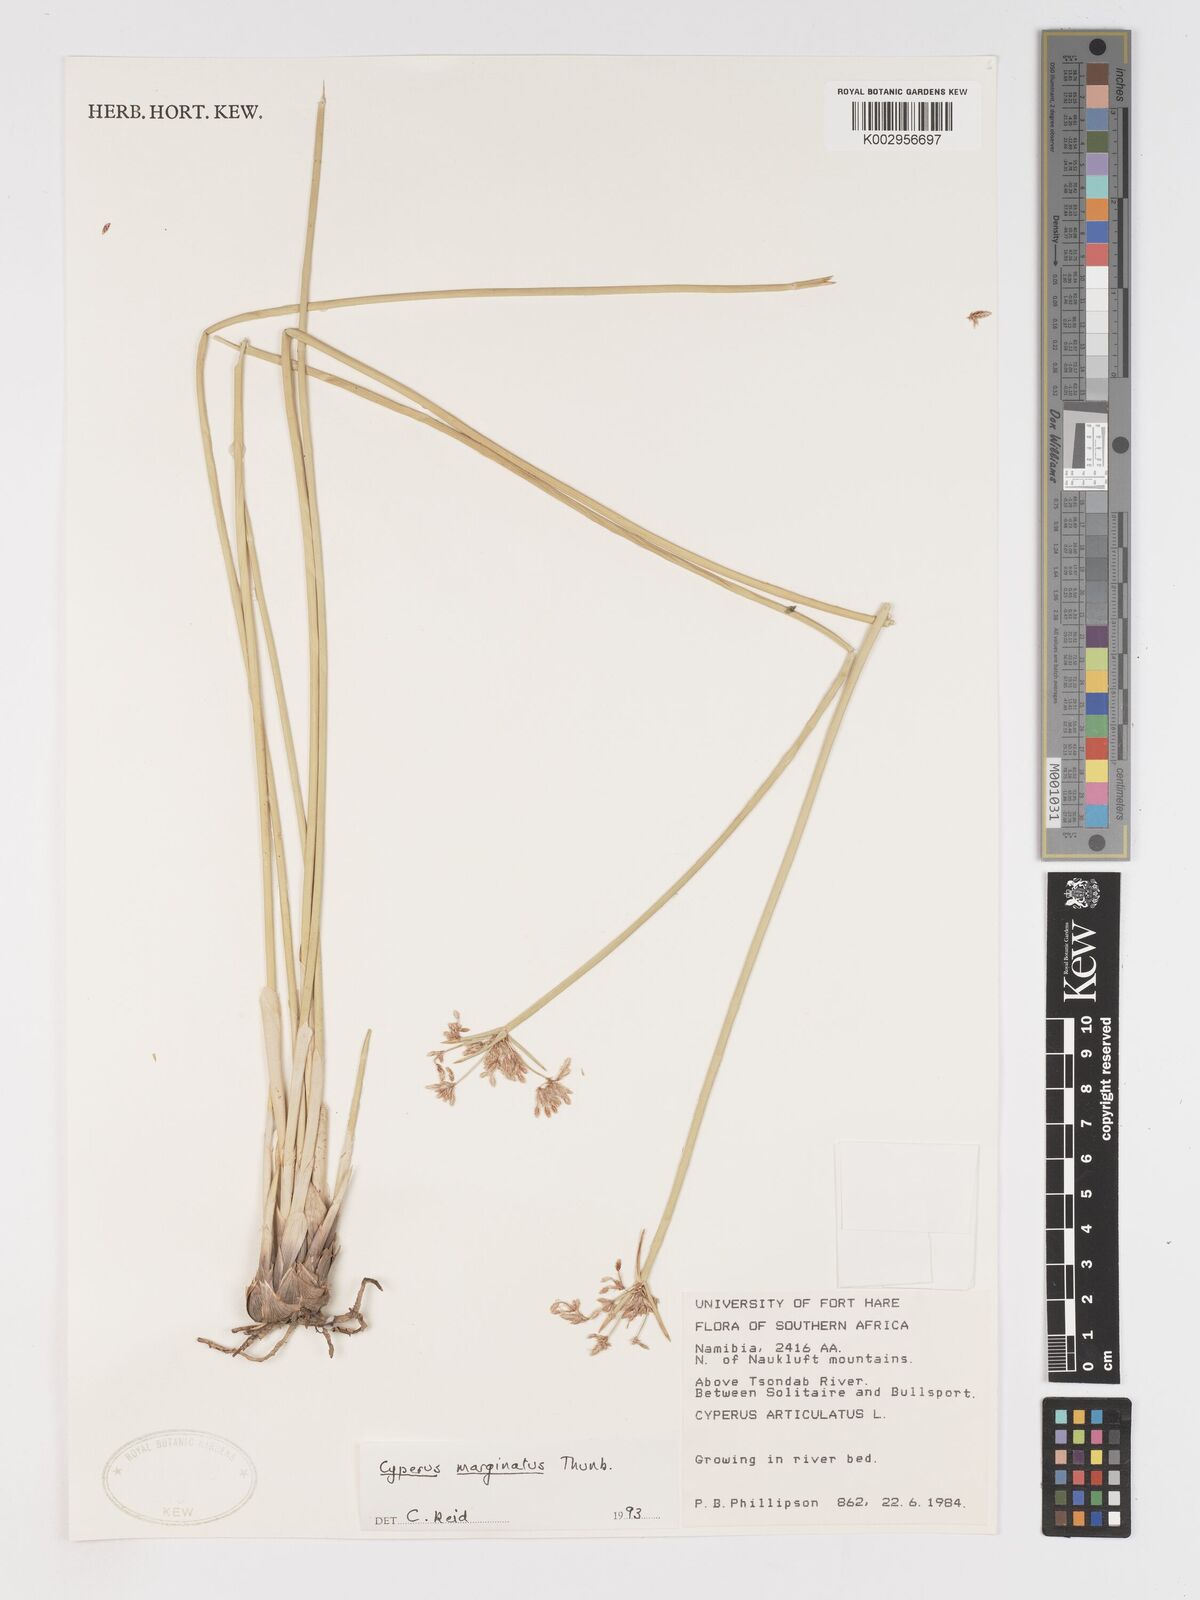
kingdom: Plantae
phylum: Tracheophyta
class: Liliopsida
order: Poales
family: Cyperaceae
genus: Cyperus
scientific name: Cyperus marginatus
